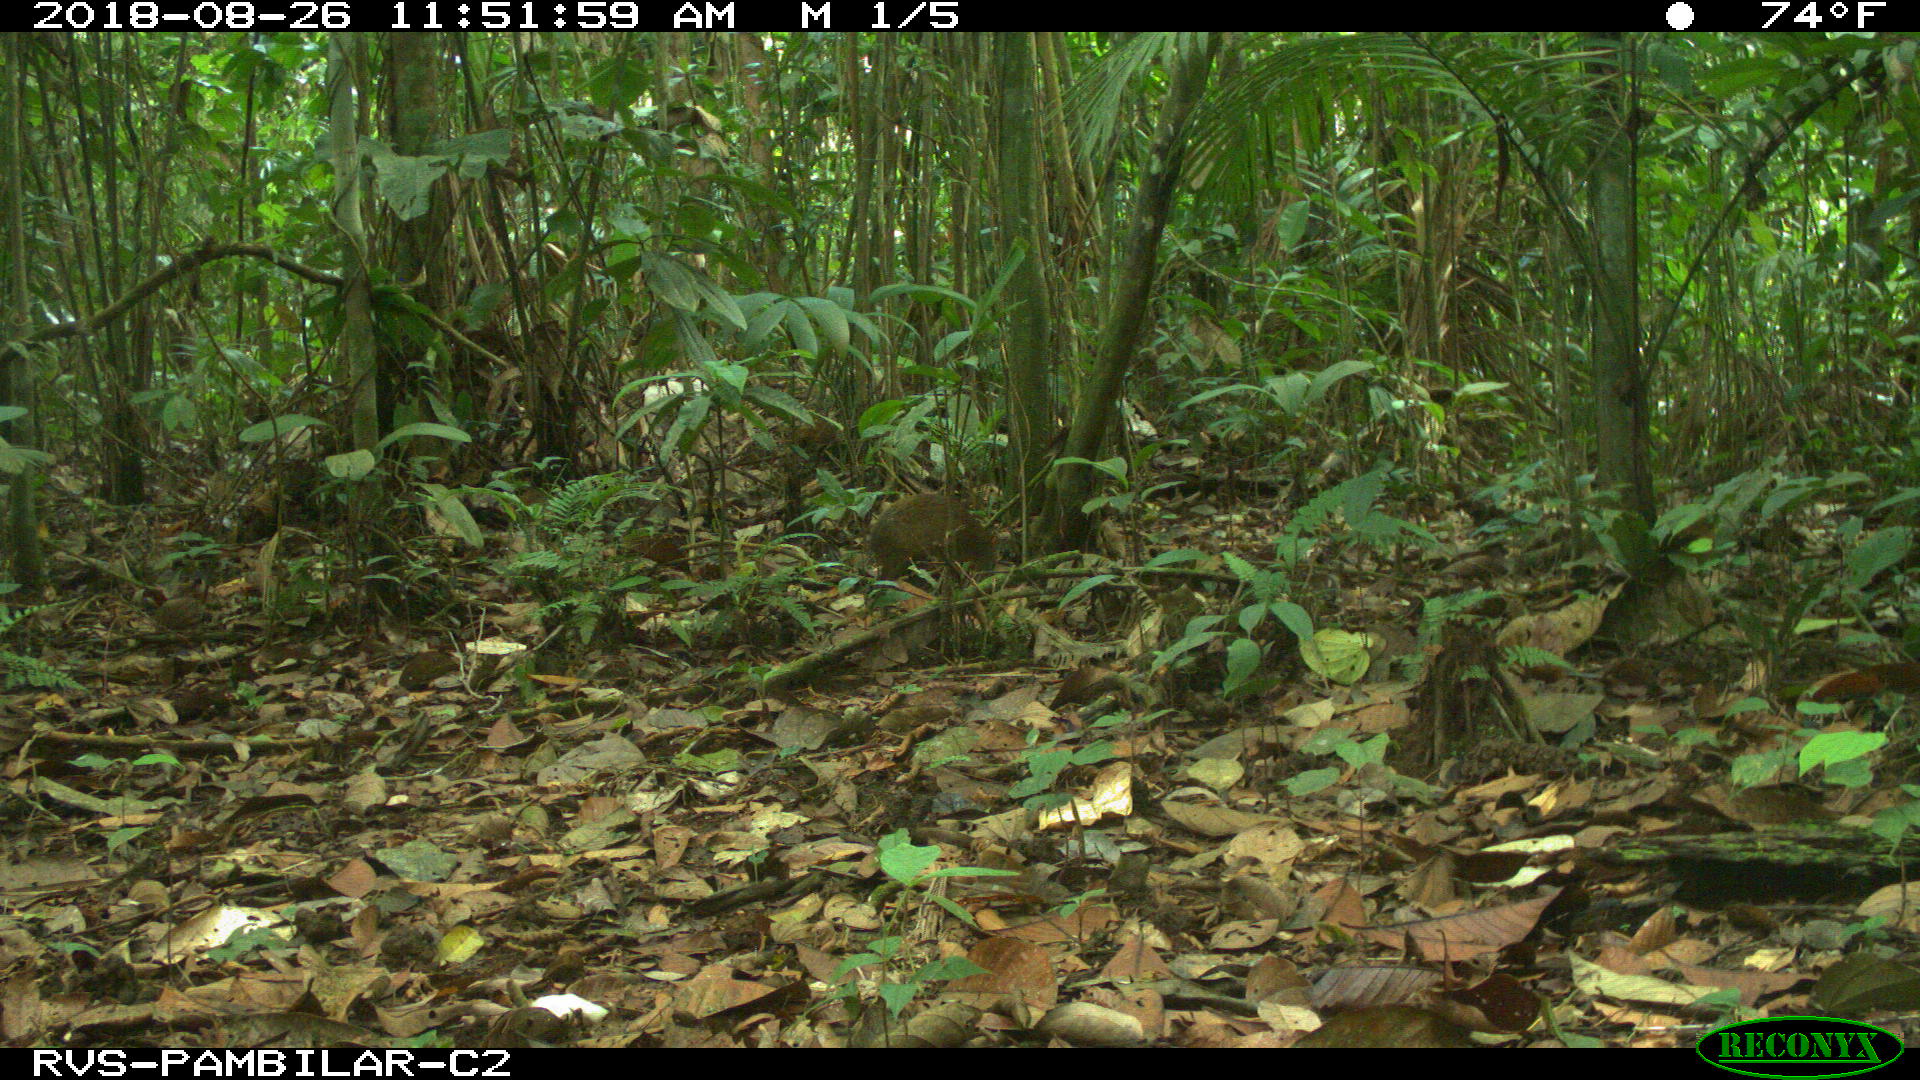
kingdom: Animalia
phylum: Chordata
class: Mammalia
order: Rodentia
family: Dasyproctidae
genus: Dasyprocta
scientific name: Dasyprocta punctata
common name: Central american agouti
